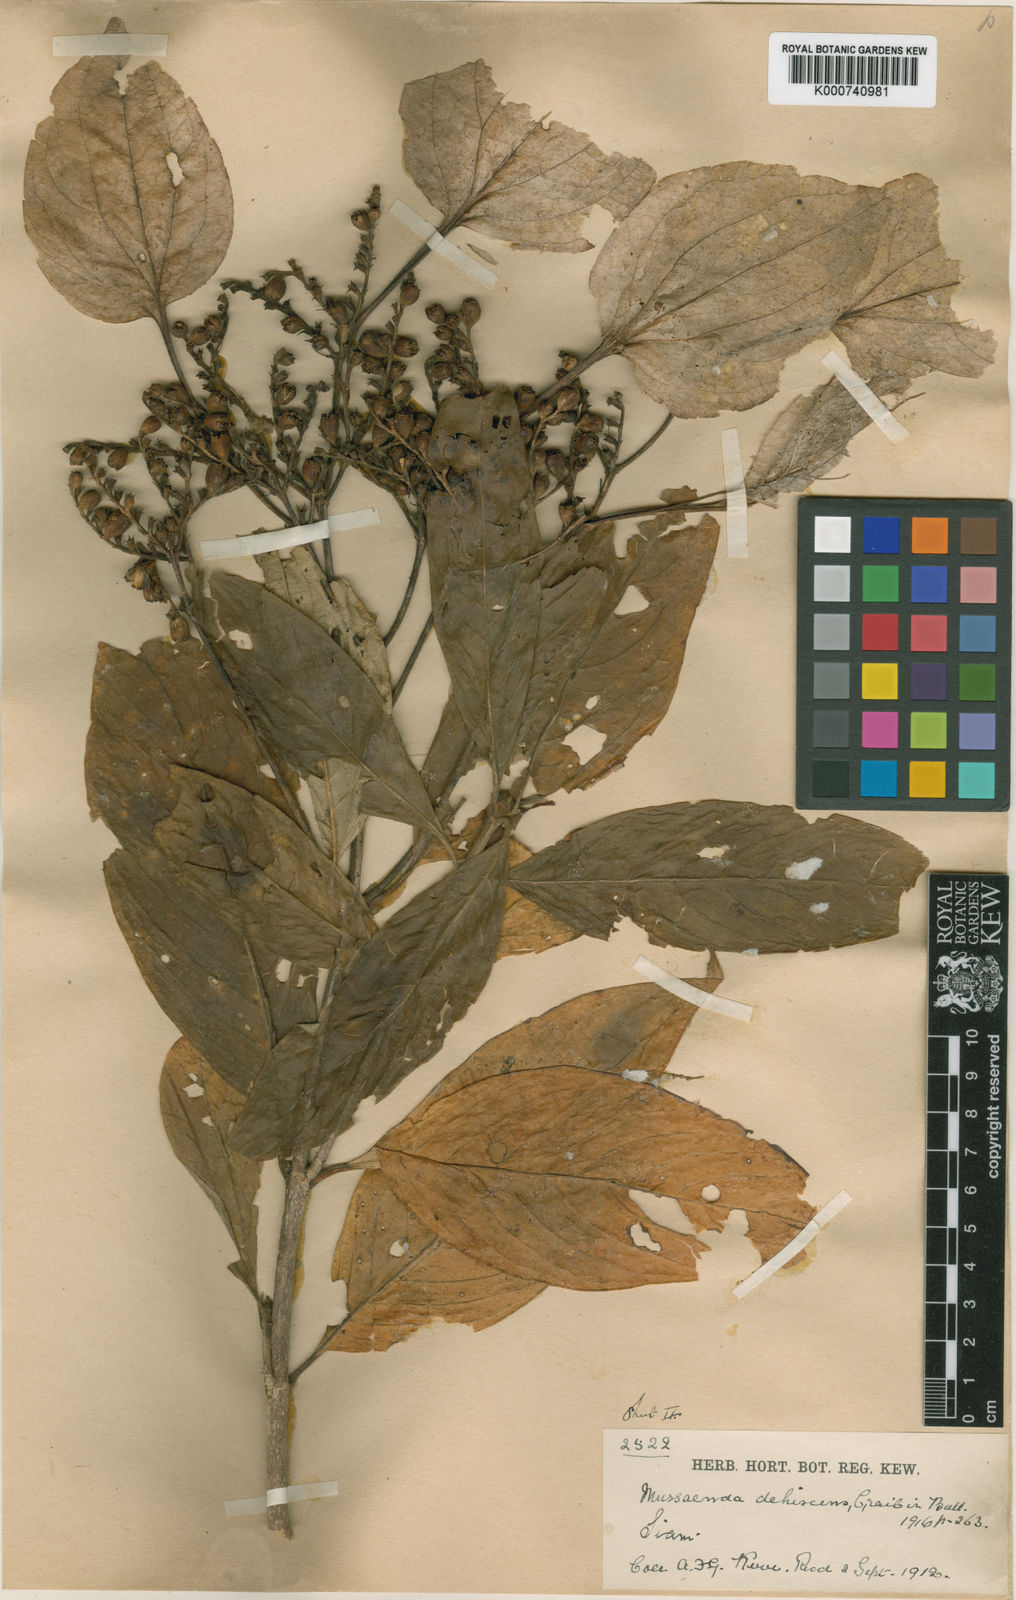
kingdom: Plantae
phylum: Tracheophyta
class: Magnoliopsida
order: Gentianales
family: Rubiaceae
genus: Schizomussaenda
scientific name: Schizomussaenda henryi
